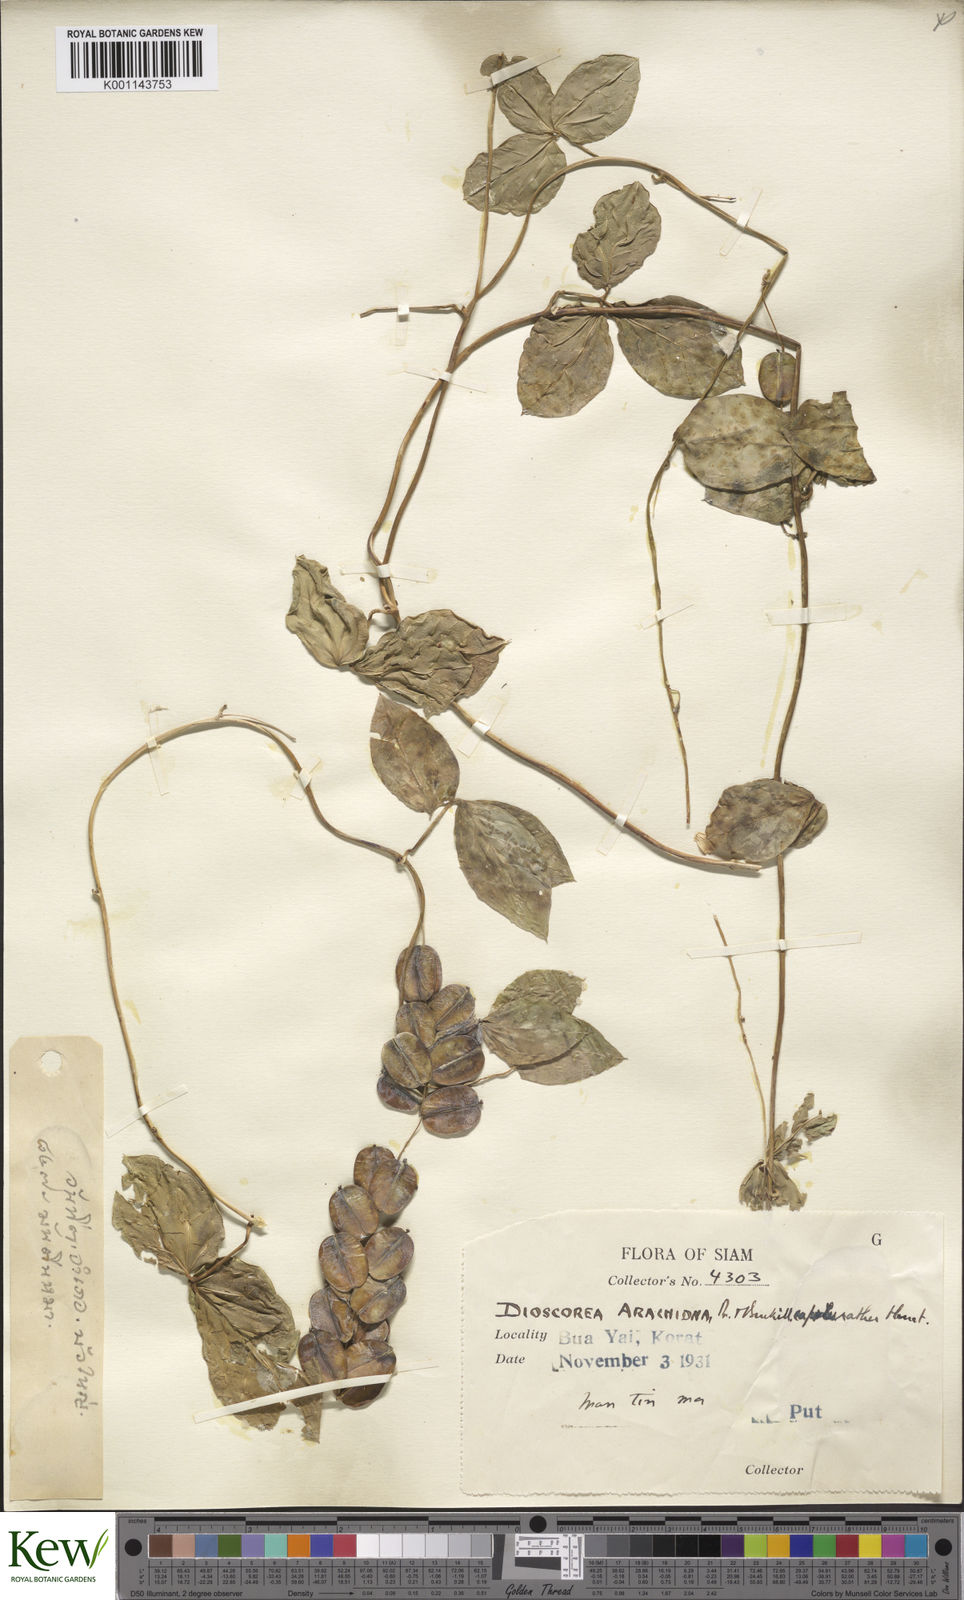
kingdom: Plantae
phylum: Tracheophyta
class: Liliopsida
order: Dioscoreales
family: Dioscoreaceae
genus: Dioscorea
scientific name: Dioscorea pentaphylla
